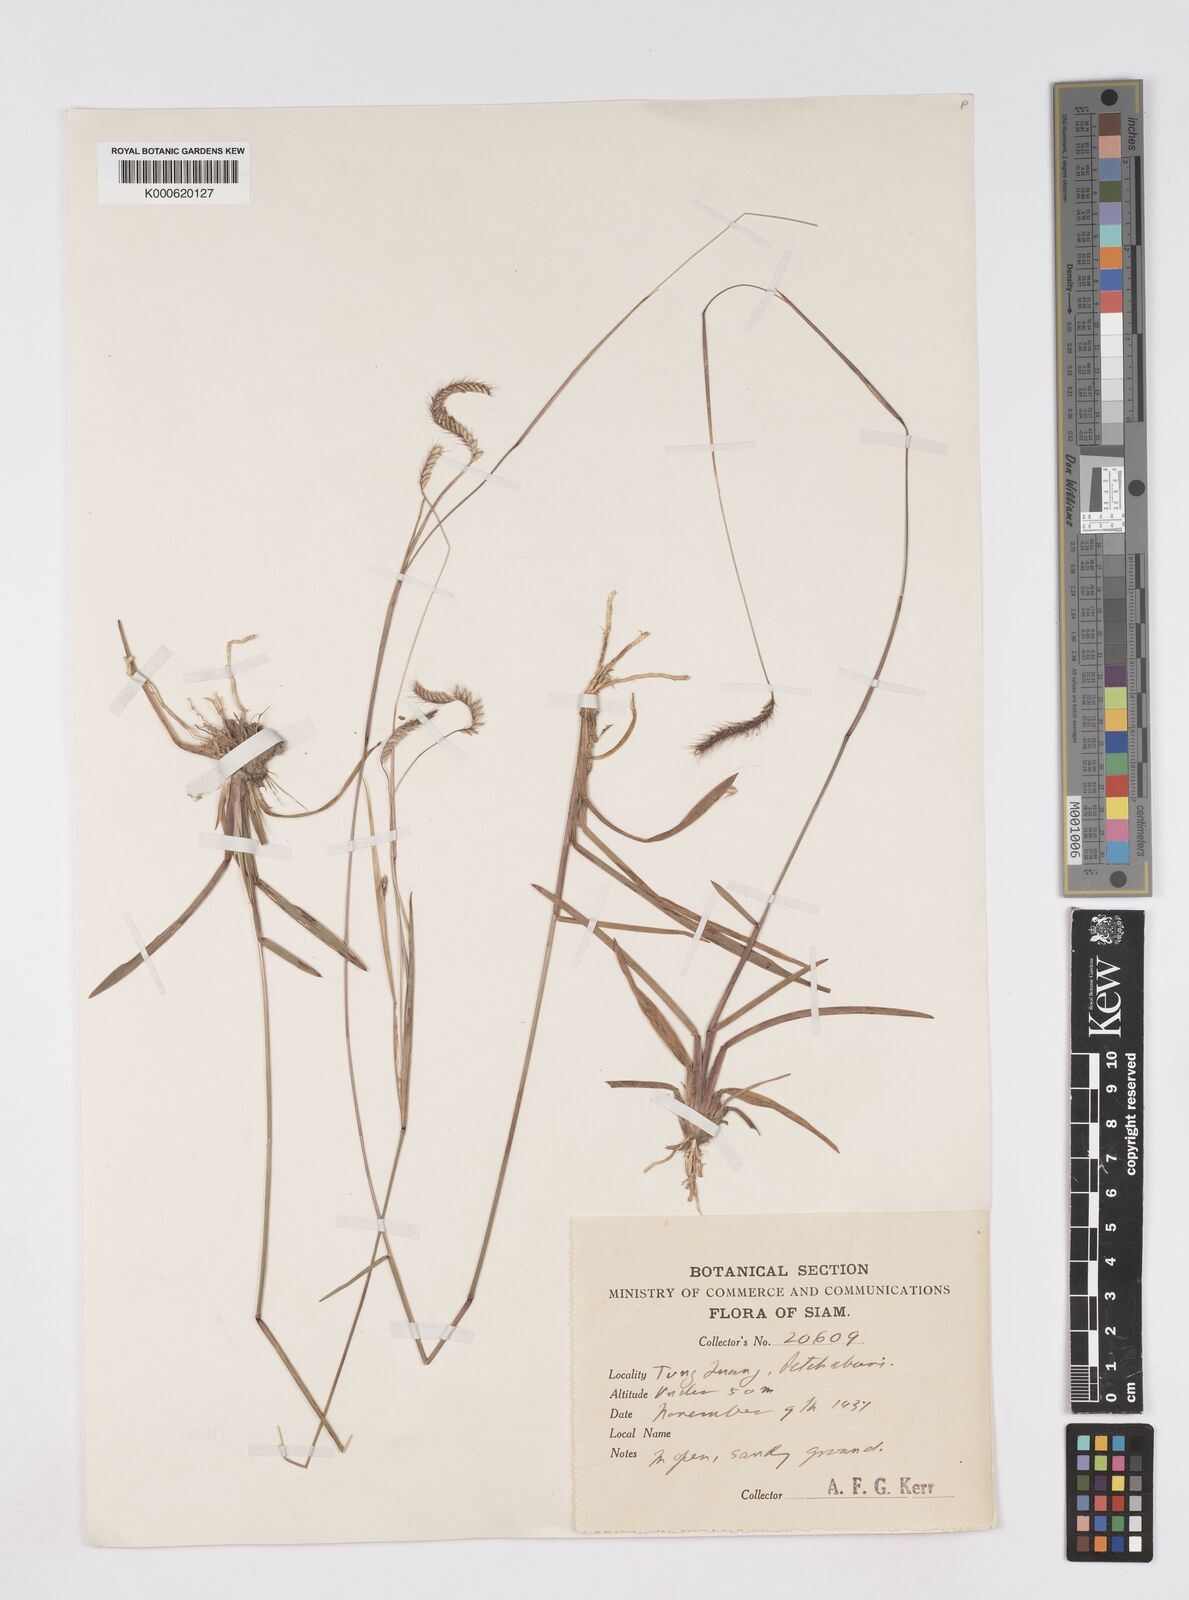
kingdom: Plantae
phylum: Tracheophyta
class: Liliopsida
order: Poales
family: Poaceae
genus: Eremochloa
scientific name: Eremochloa ciliaris
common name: Fringed centipede grass
